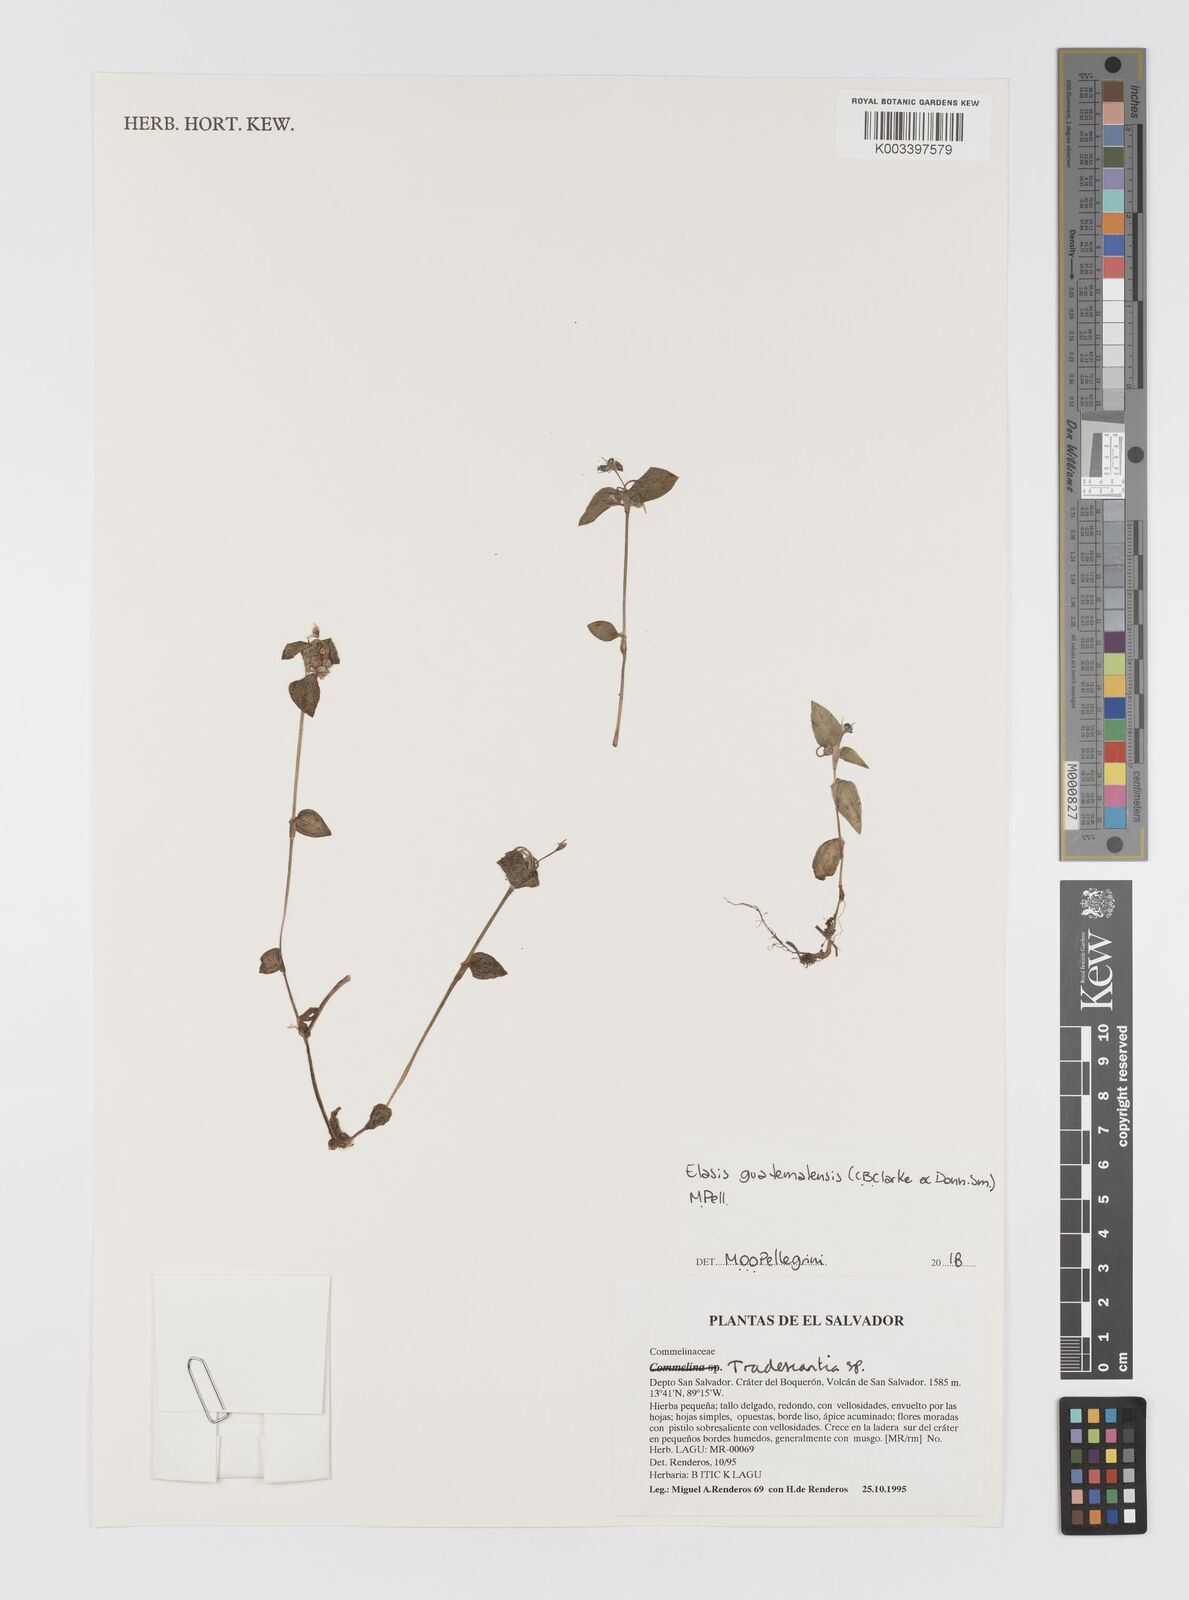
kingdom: Plantae
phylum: Tracheophyta
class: Liliopsida
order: Commelinales
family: Commelinaceae
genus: Elasis
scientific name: Elasis guatemalensis
